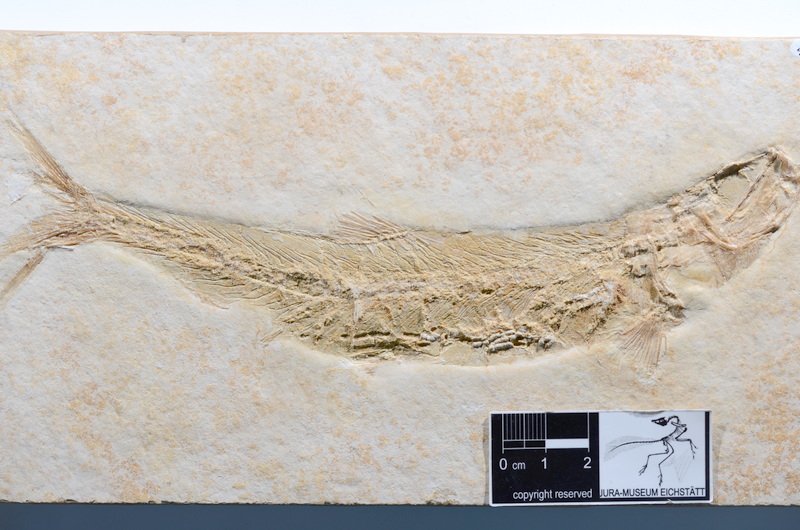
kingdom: Animalia
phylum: Chordata
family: Ascalaboidae
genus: Tharsis
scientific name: Tharsis dubius
